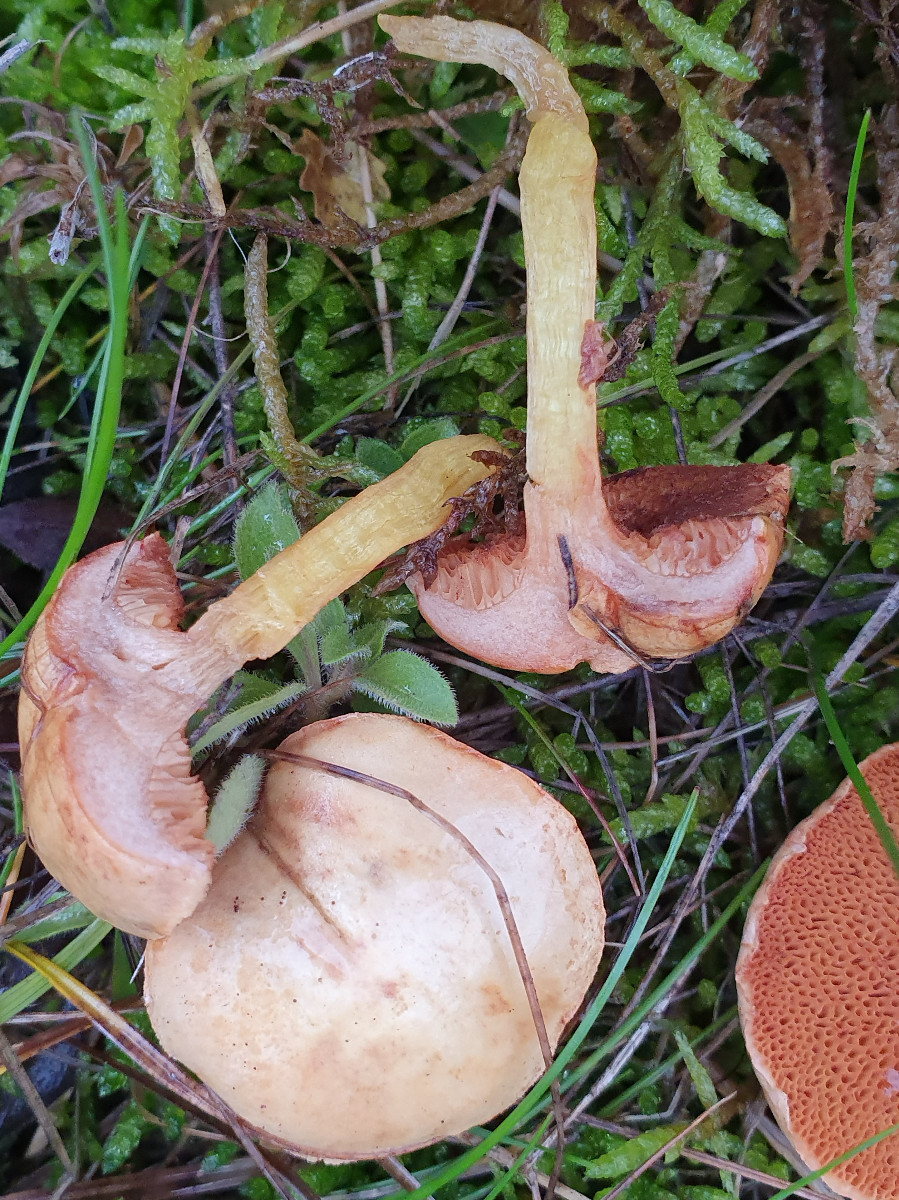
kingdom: Fungi
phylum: Basidiomycota
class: Agaricomycetes
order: Boletales
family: Boletaceae
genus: Chalciporus
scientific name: Chalciporus piperatus
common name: peberrørhat
